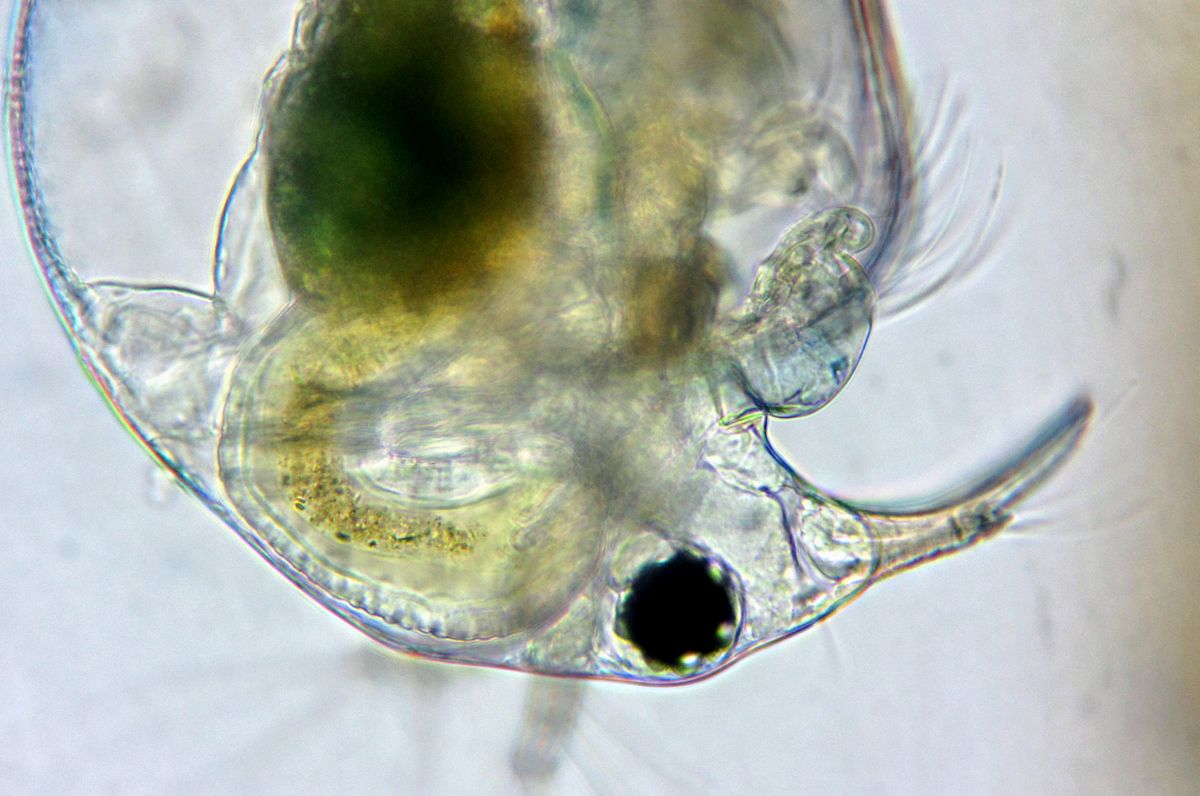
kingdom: Animalia
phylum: Arthropoda
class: Branchiopoda
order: Diplostraca
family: Bosminidae
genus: Bosmina
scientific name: Bosmina longirostris
